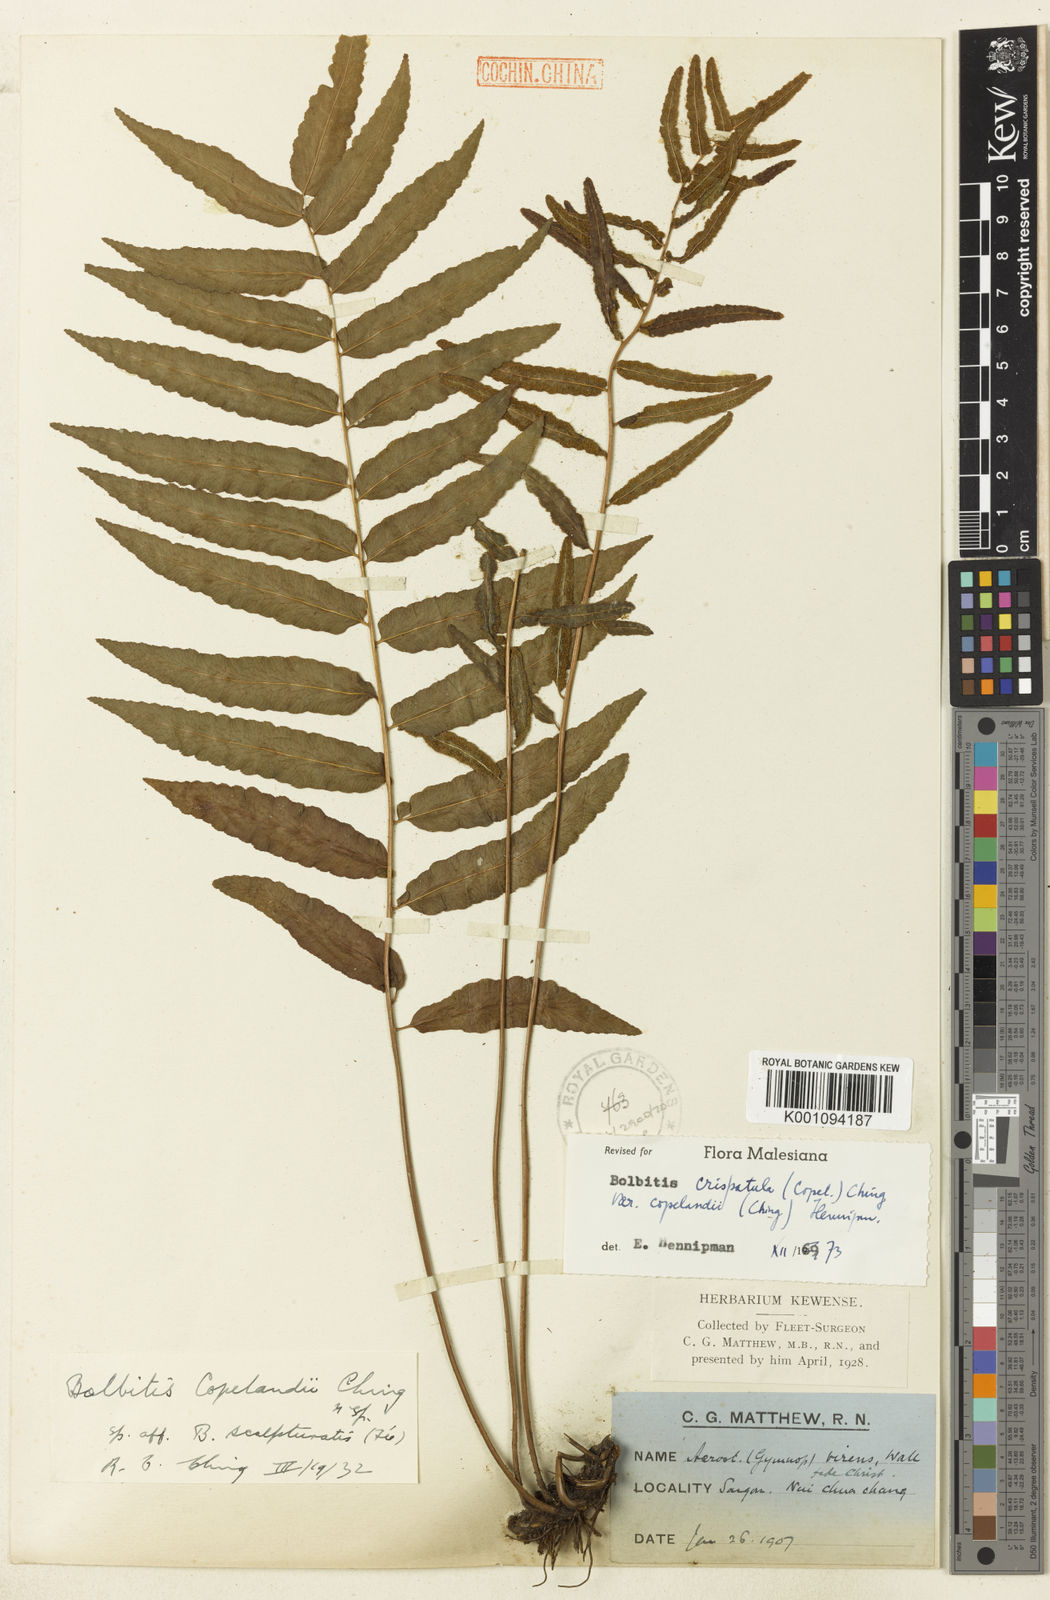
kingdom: Plantae
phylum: Tracheophyta
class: Polypodiopsida
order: Polypodiales
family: Dryopteridaceae
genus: Bolbitis
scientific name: Bolbitis crispatula
